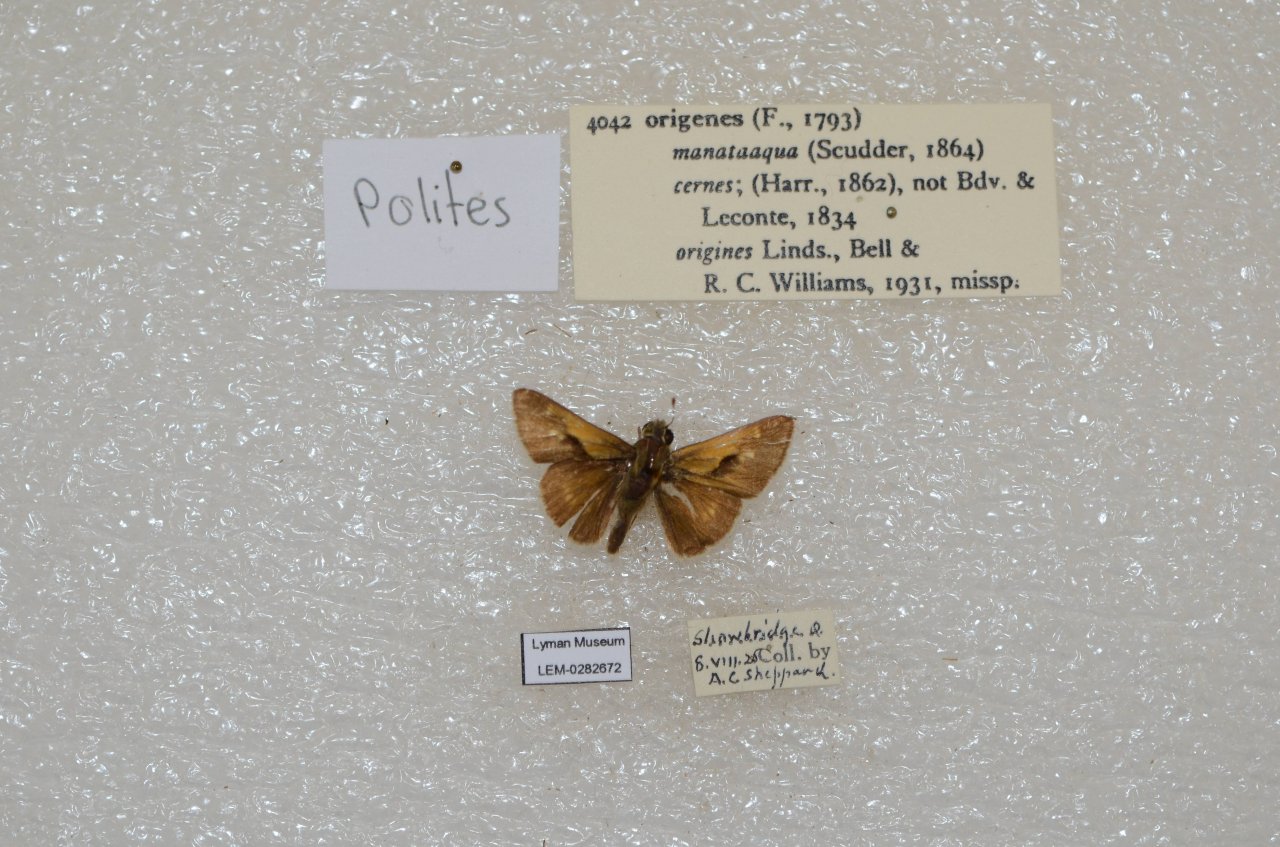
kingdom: Animalia
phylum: Arthropoda
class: Insecta
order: Lepidoptera
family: Hesperiidae
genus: Polites
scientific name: Polites
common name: Crossline Skipper
